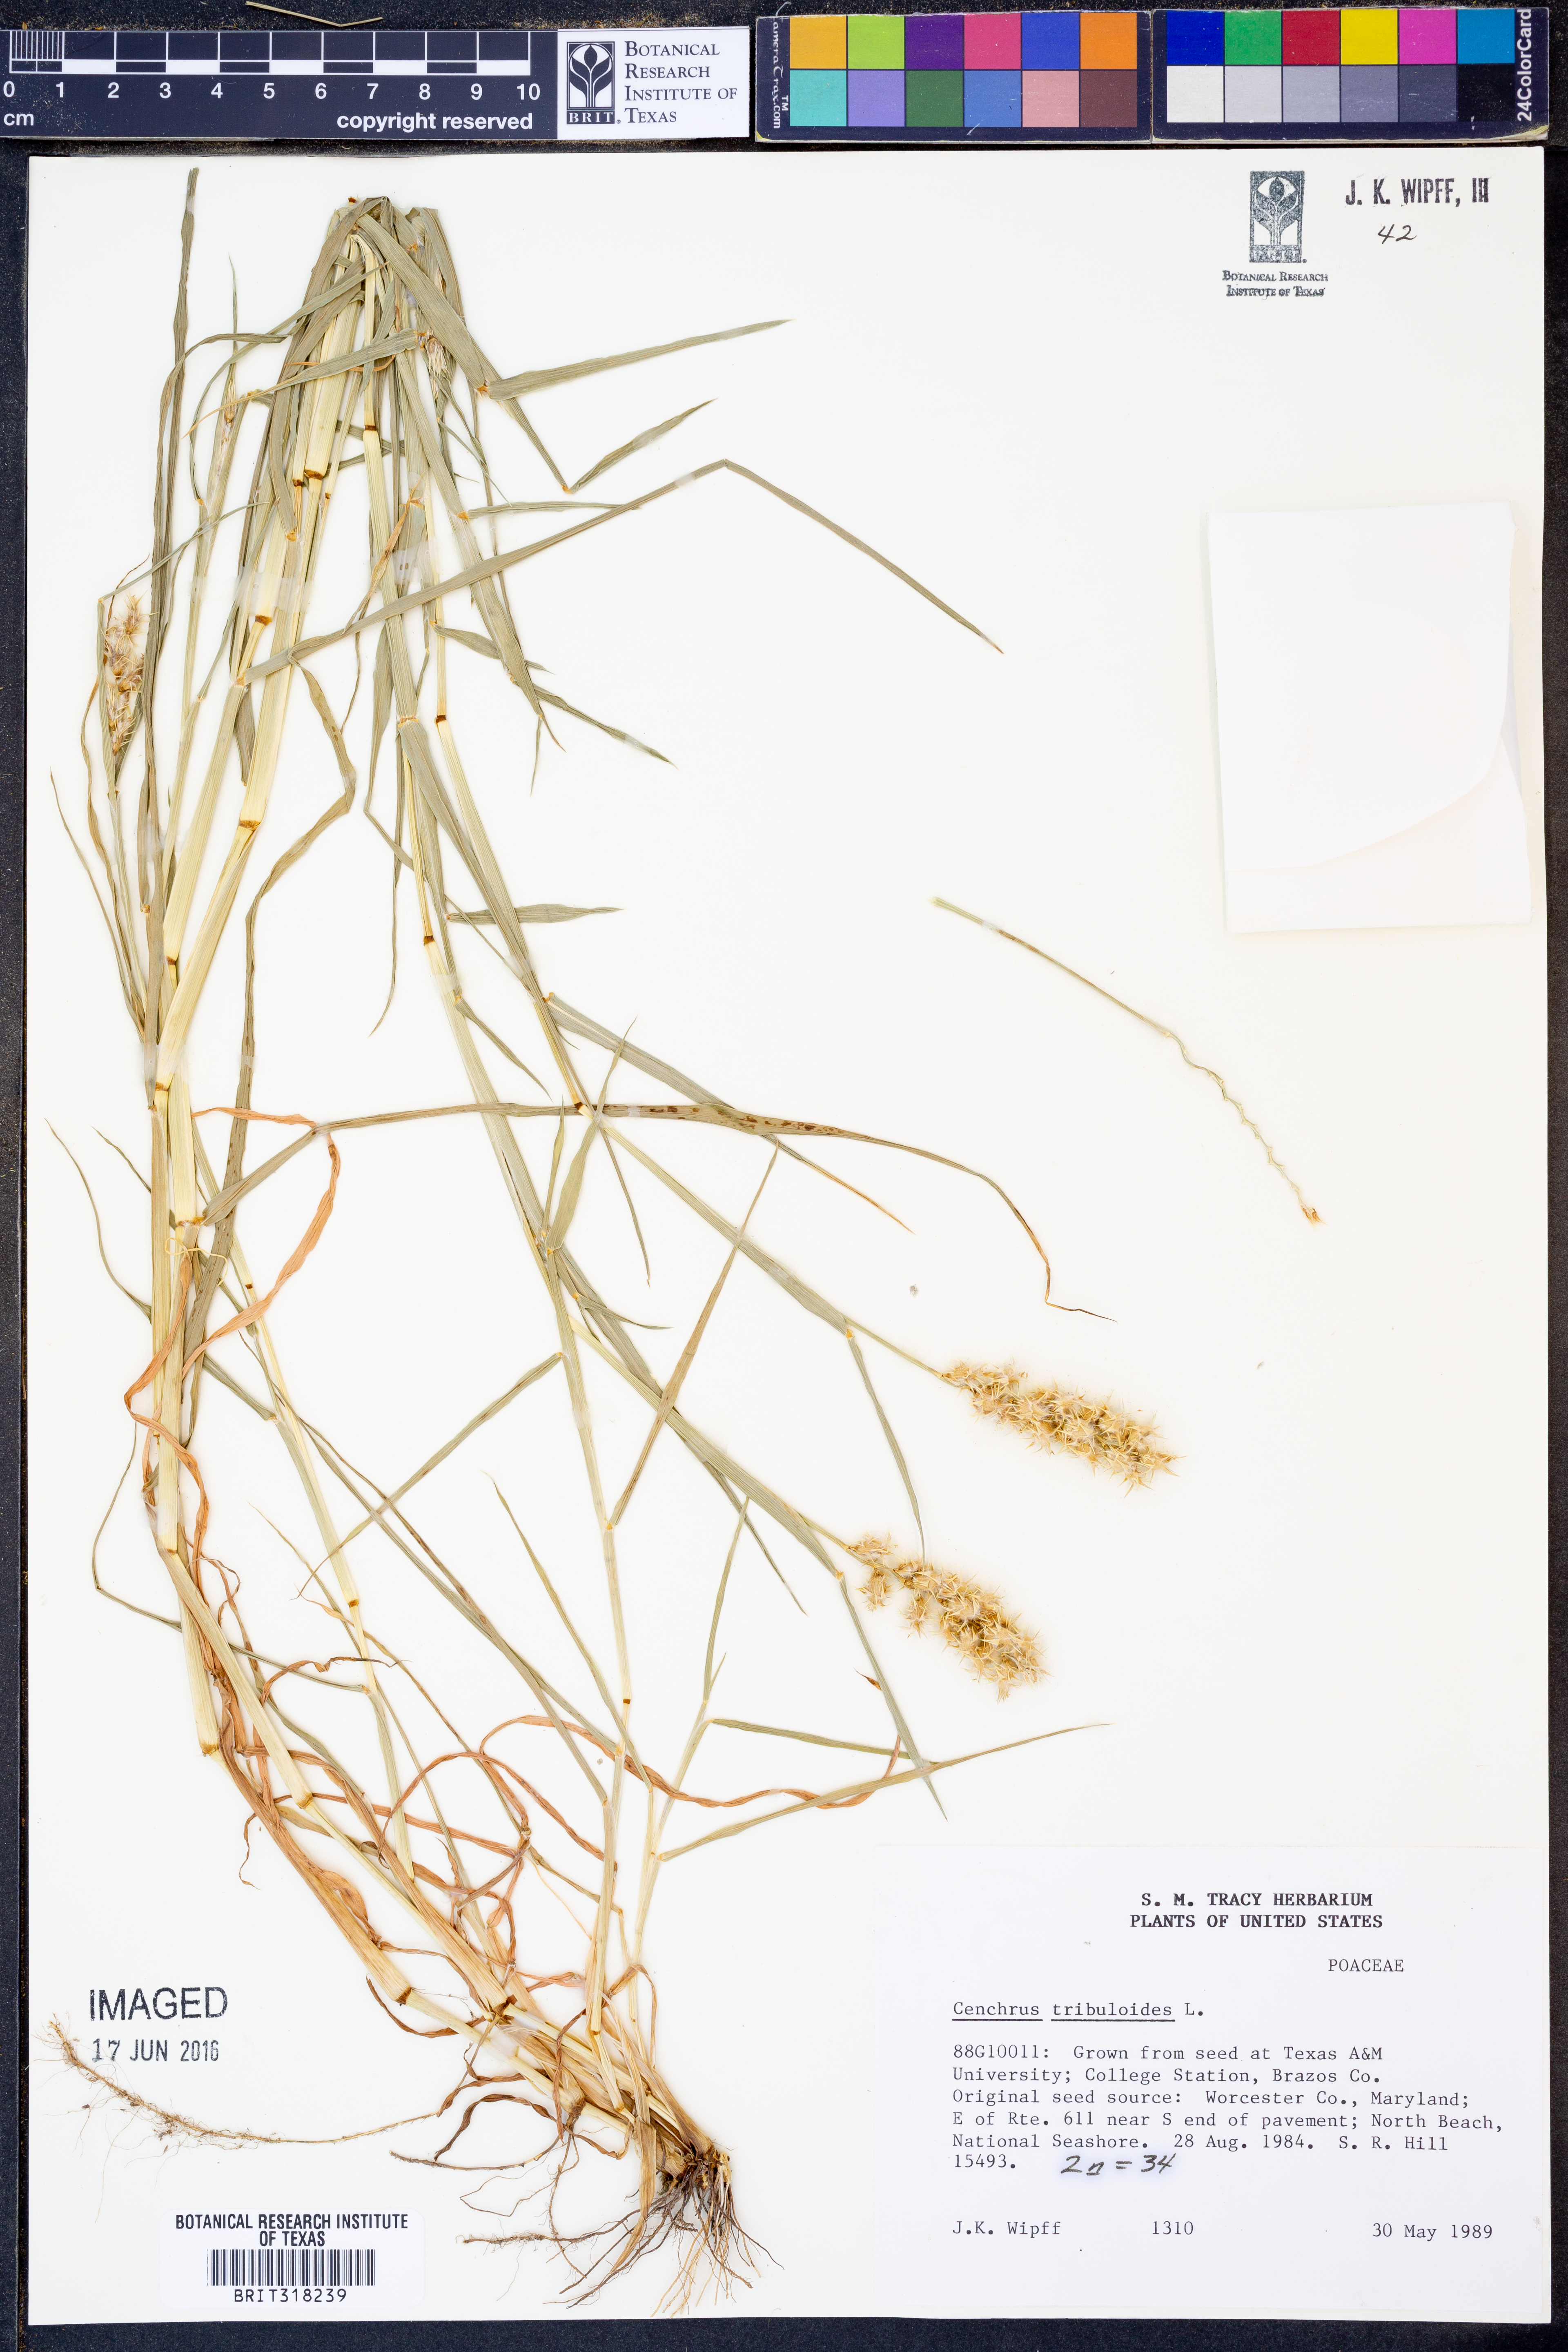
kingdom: Plantae
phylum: Tracheophyta
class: Liliopsida
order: Poales
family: Poaceae
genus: Cenchrus
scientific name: Cenchrus tribuloides
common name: Dune sandbur
